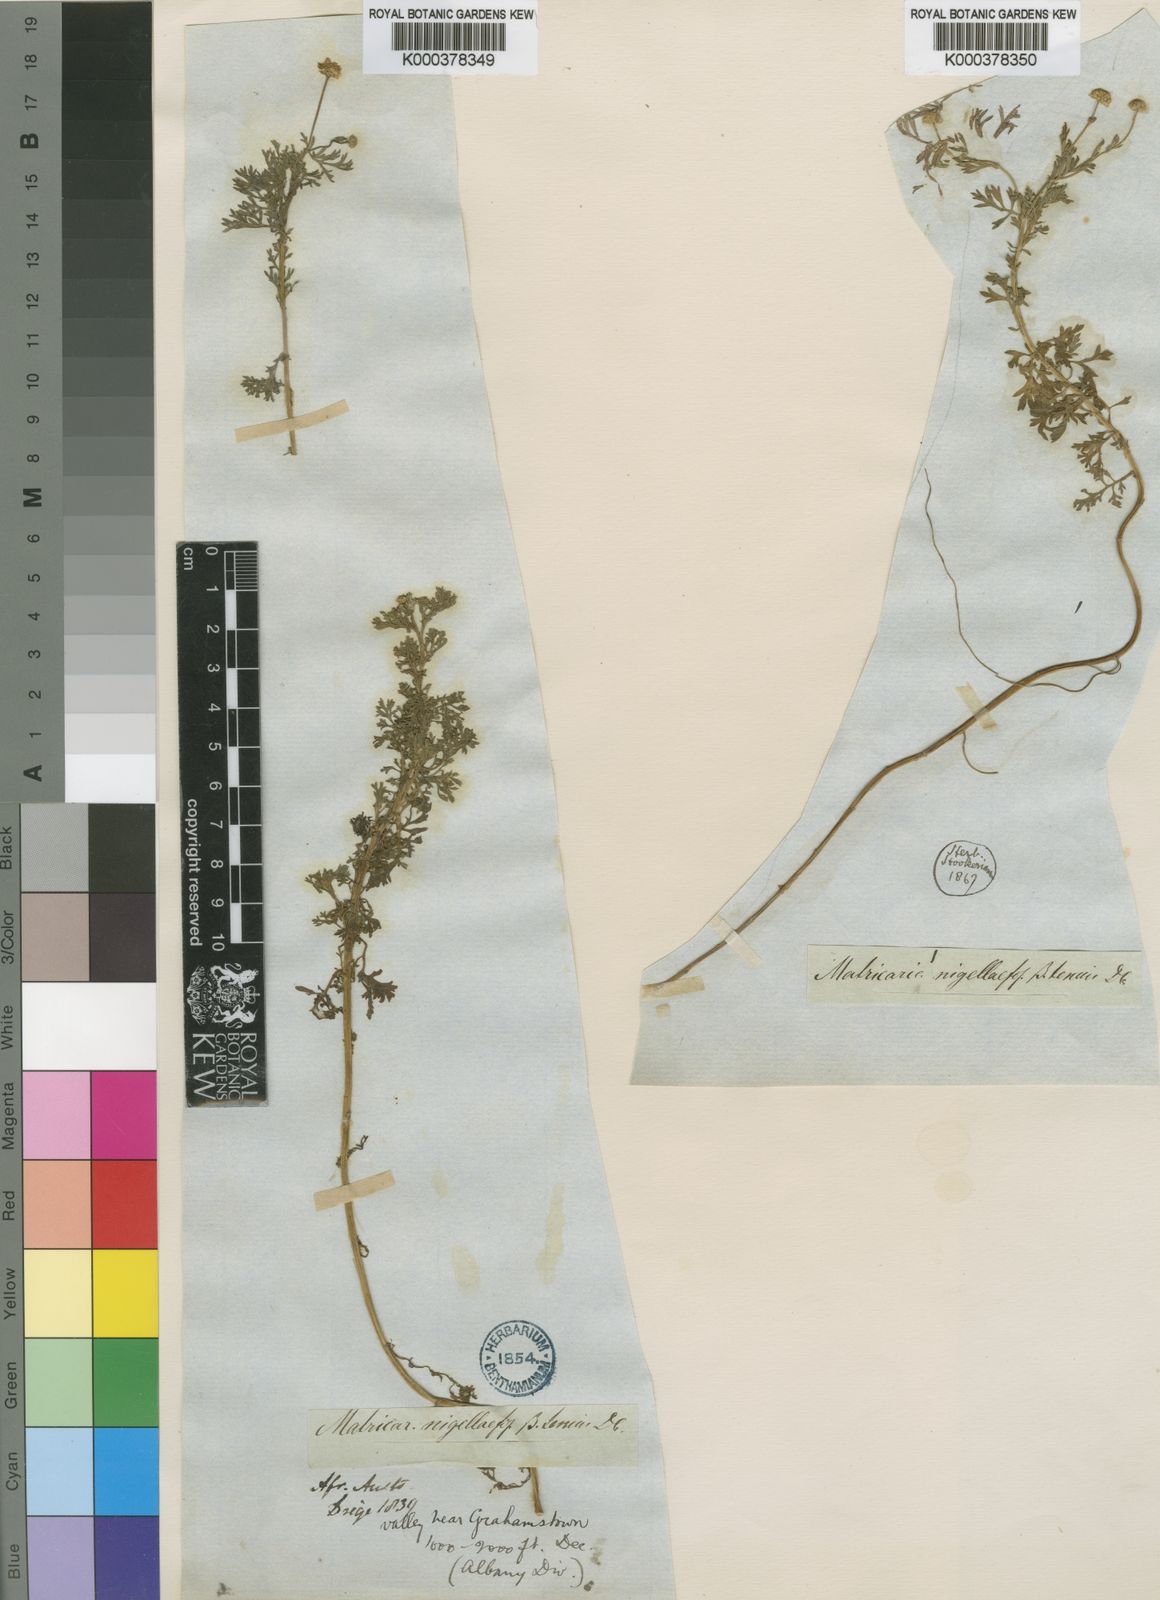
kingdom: Plantae
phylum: Tracheophyta
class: Magnoliopsida
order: Asterales
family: Asteraceae
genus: Cotula
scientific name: Cotula nigellifolia
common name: Staggerweed
